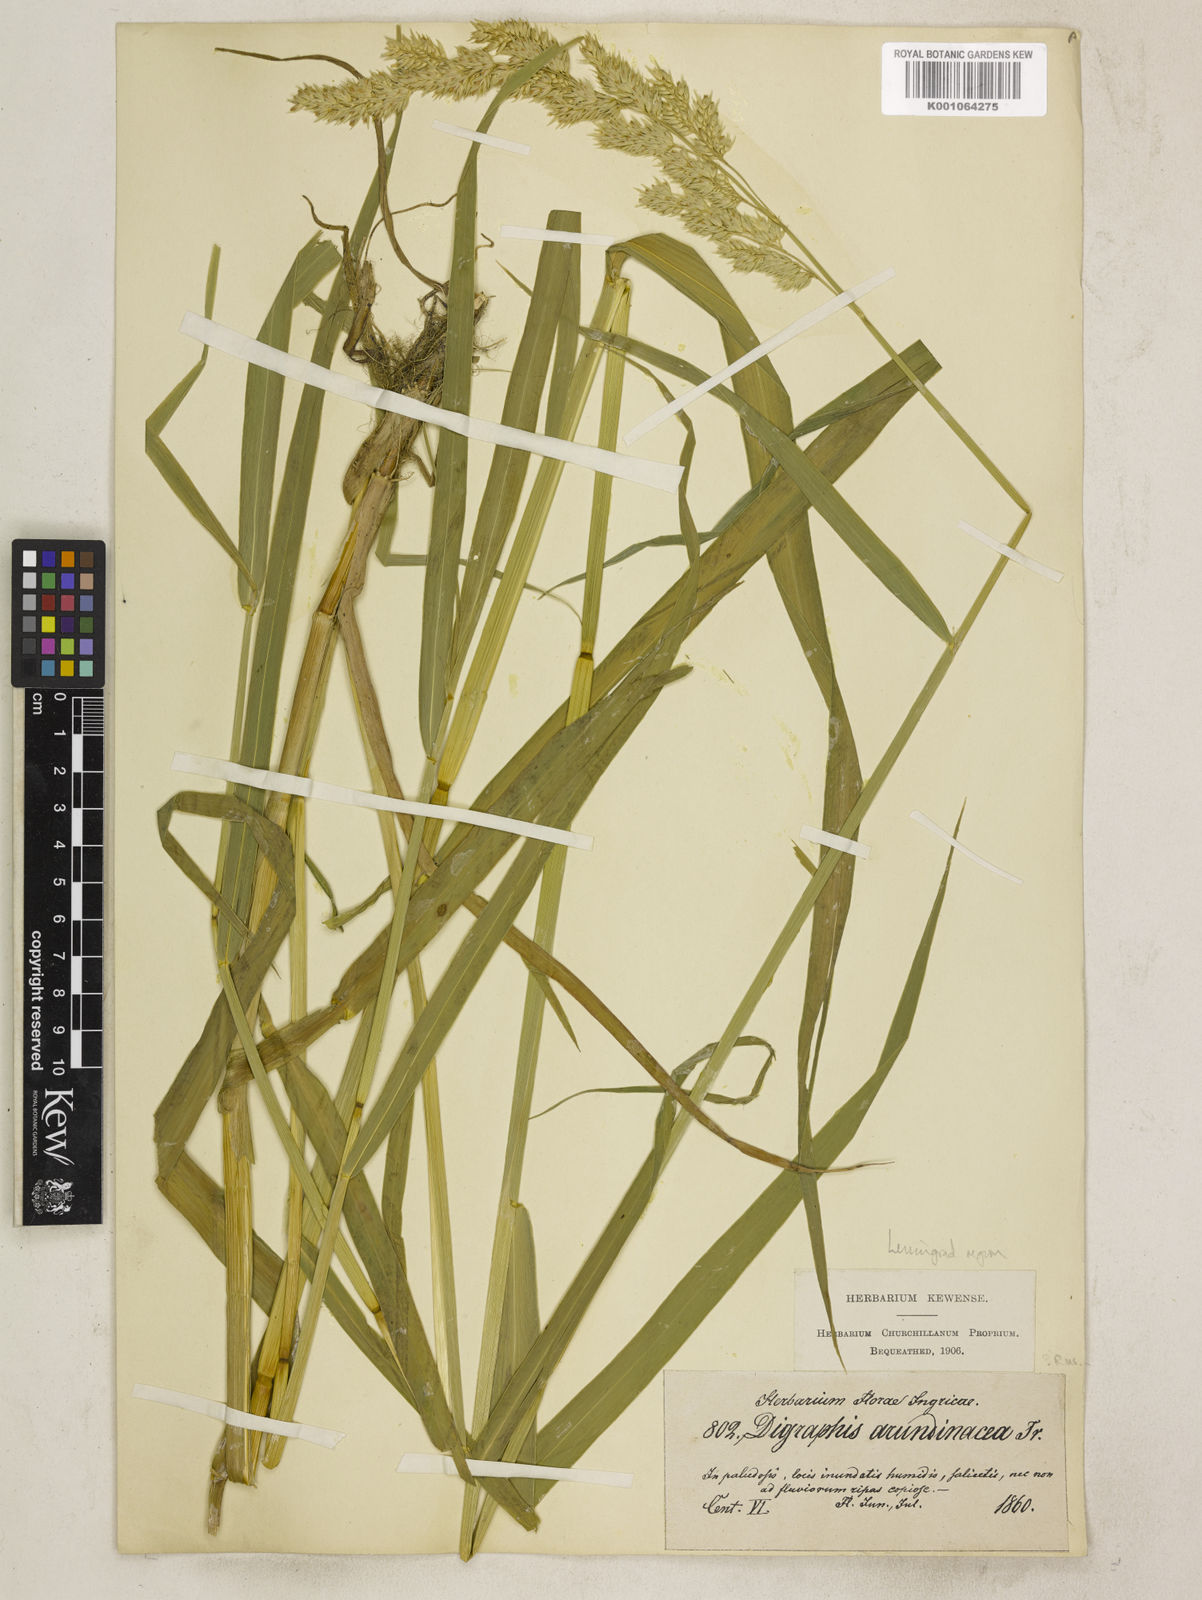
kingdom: Plantae
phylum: Tracheophyta
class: Liliopsida
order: Poales
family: Poaceae
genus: Phalaris
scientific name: Phalaris arundinacea
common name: Reed canary-grass
